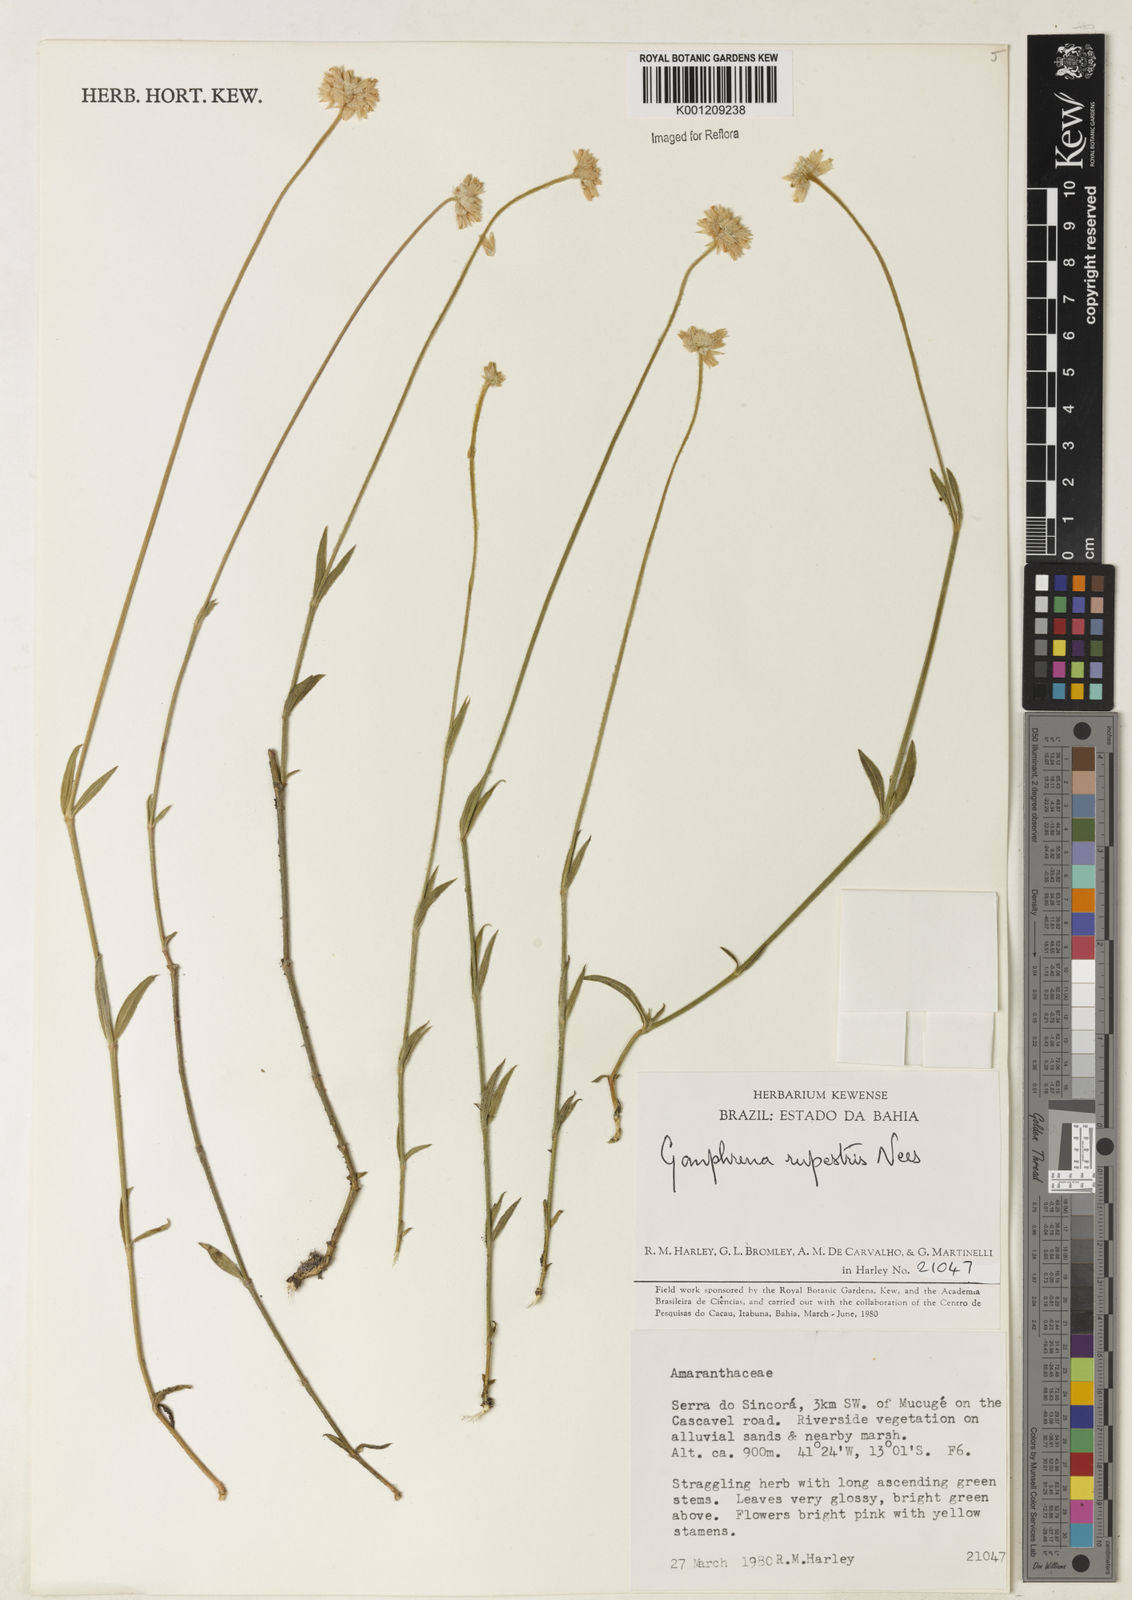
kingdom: Plantae
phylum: Tracheophyta
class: Magnoliopsida
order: Caryophyllales
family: Amaranthaceae
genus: Gomphrena
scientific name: Gomphrena rupestris
